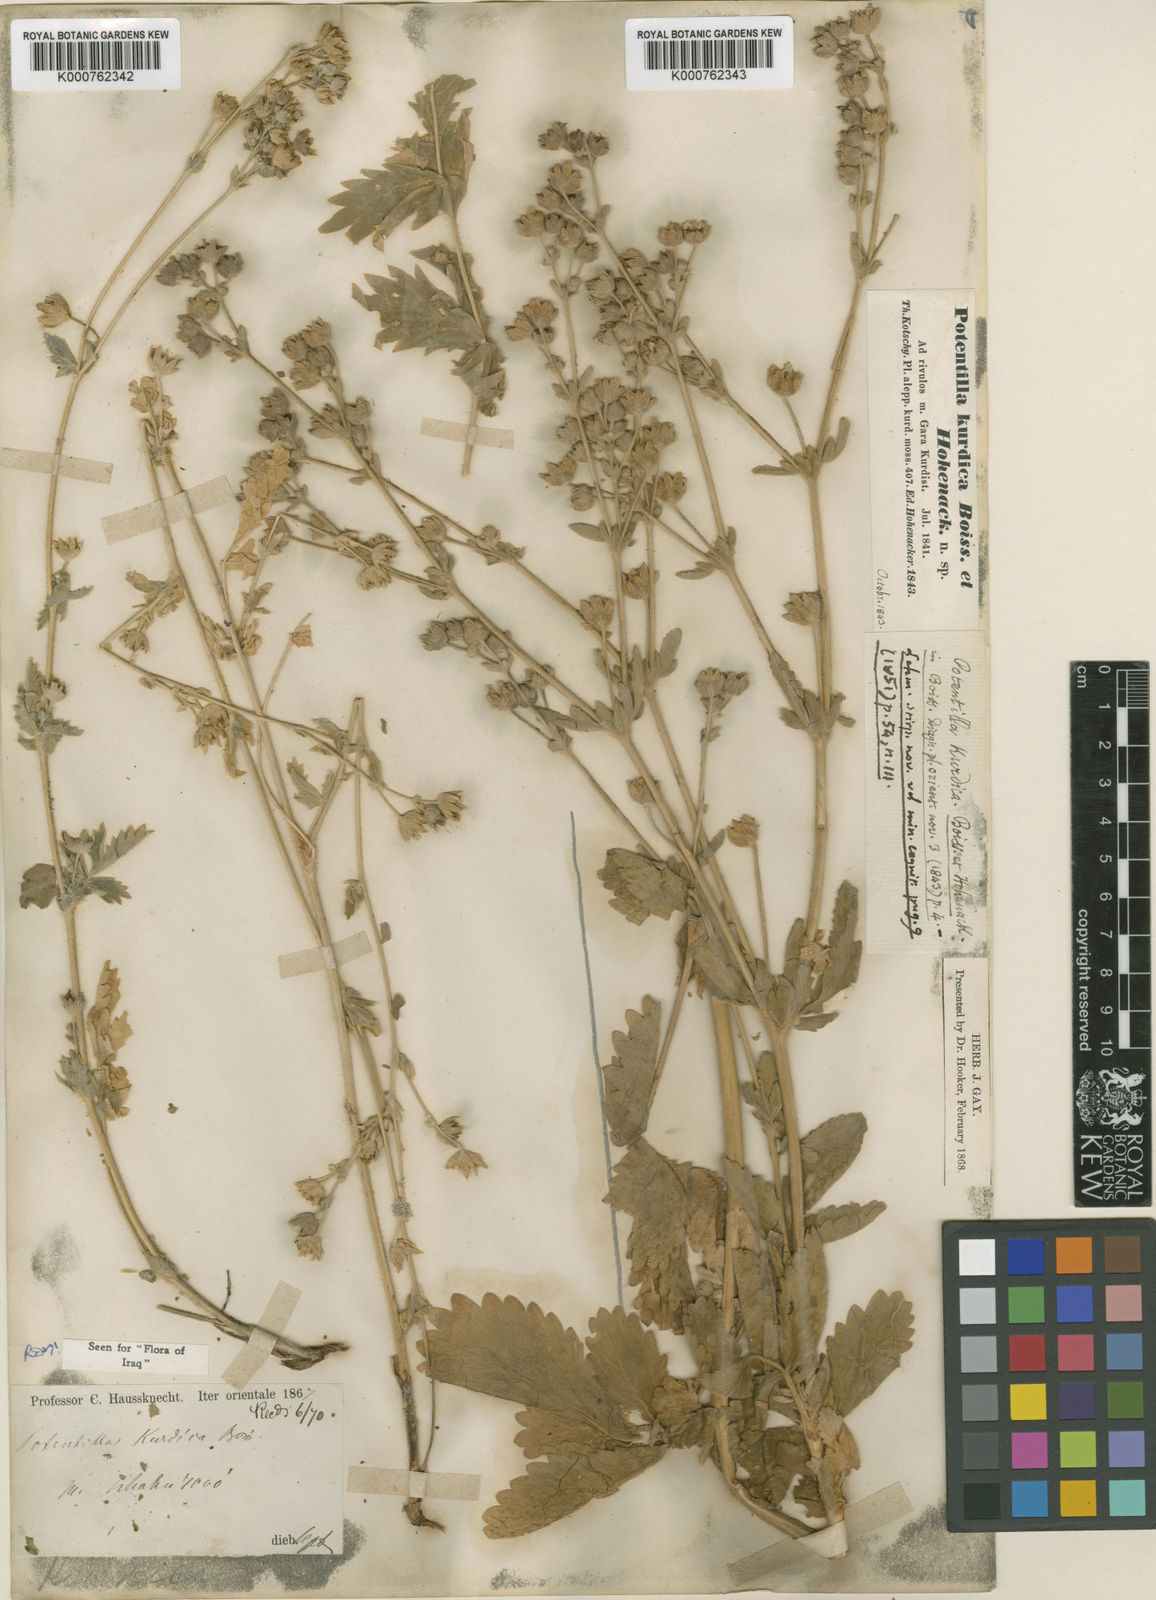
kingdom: Plantae
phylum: Tracheophyta
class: Magnoliopsida
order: Rosales
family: Rosaceae
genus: Potentilla
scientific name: Potentilla kurdica
